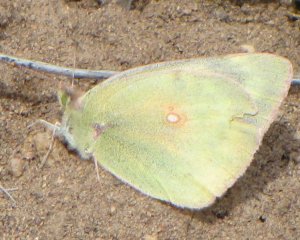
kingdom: Animalia
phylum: Arthropoda
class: Insecta
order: Lepidoptera
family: Pieridae
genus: Colias
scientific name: Colias philodice
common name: Clouded Sulphur
